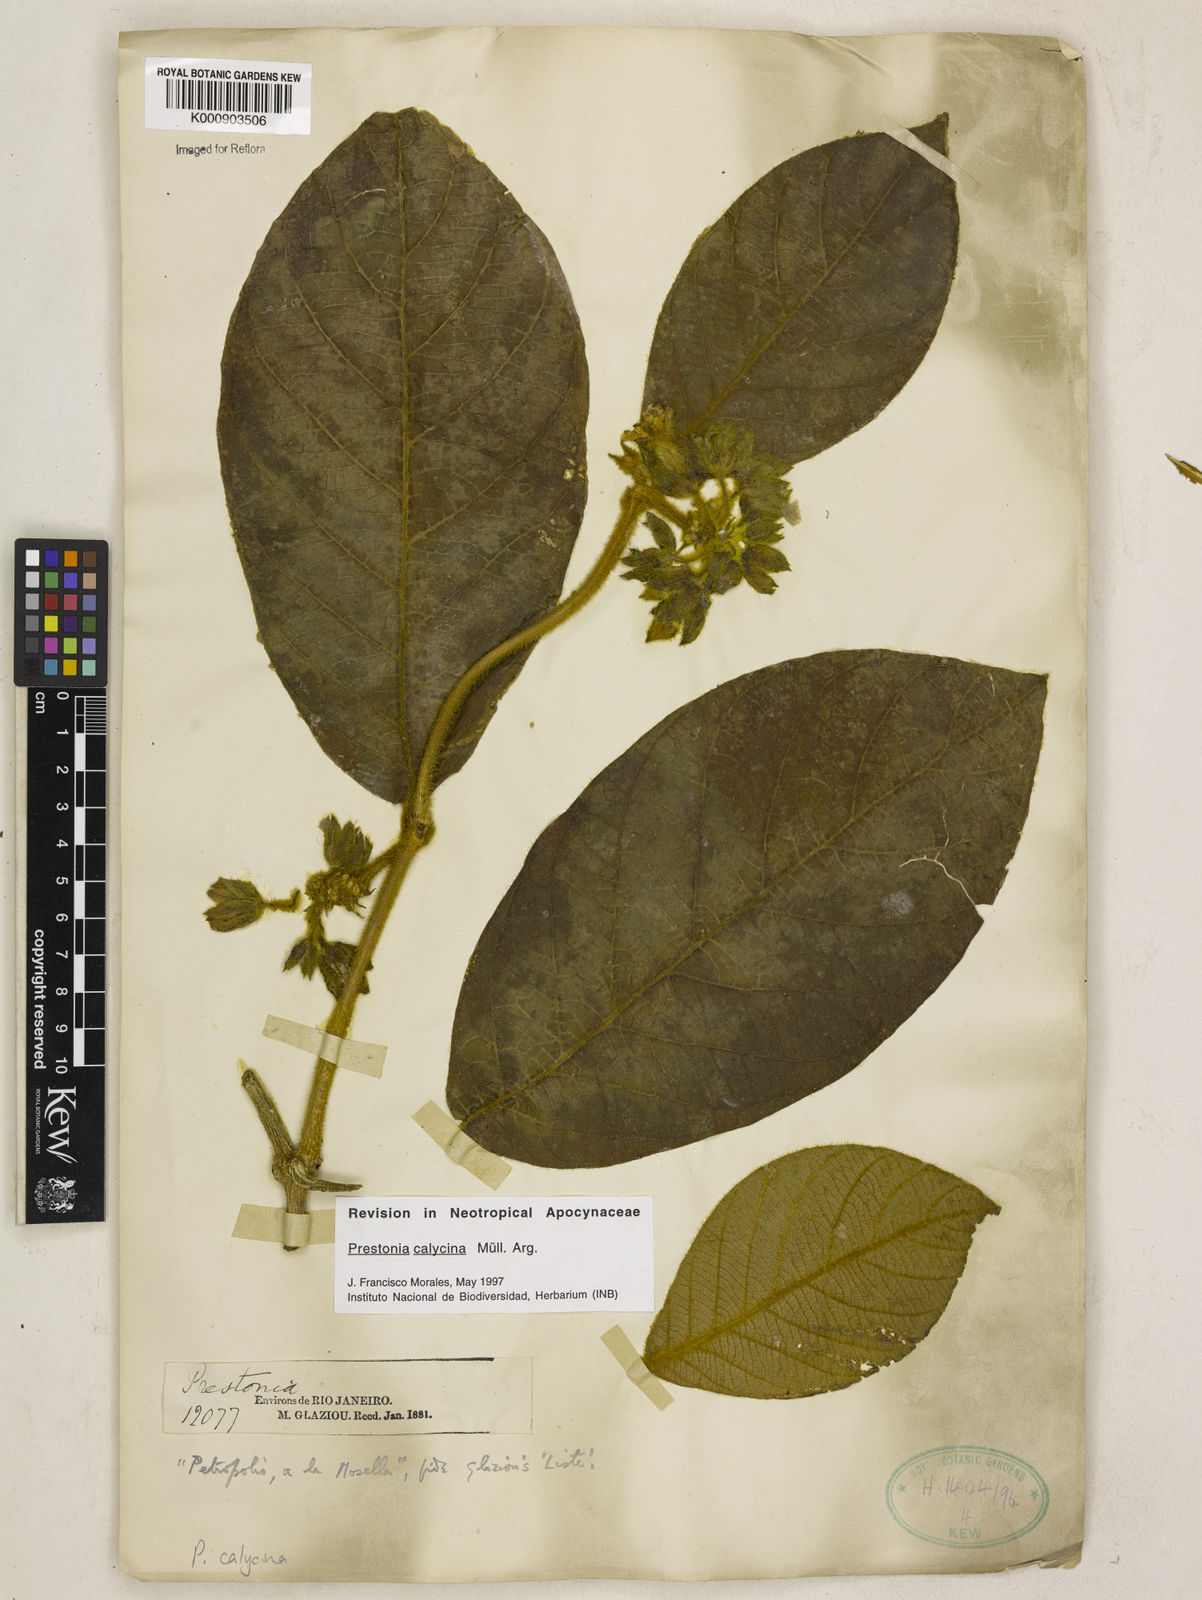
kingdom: Plantae
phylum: Tracheophyta
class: Magnoliopsida
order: Gentianales
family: Apocynaceae
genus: Prestonia
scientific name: Prestonia
